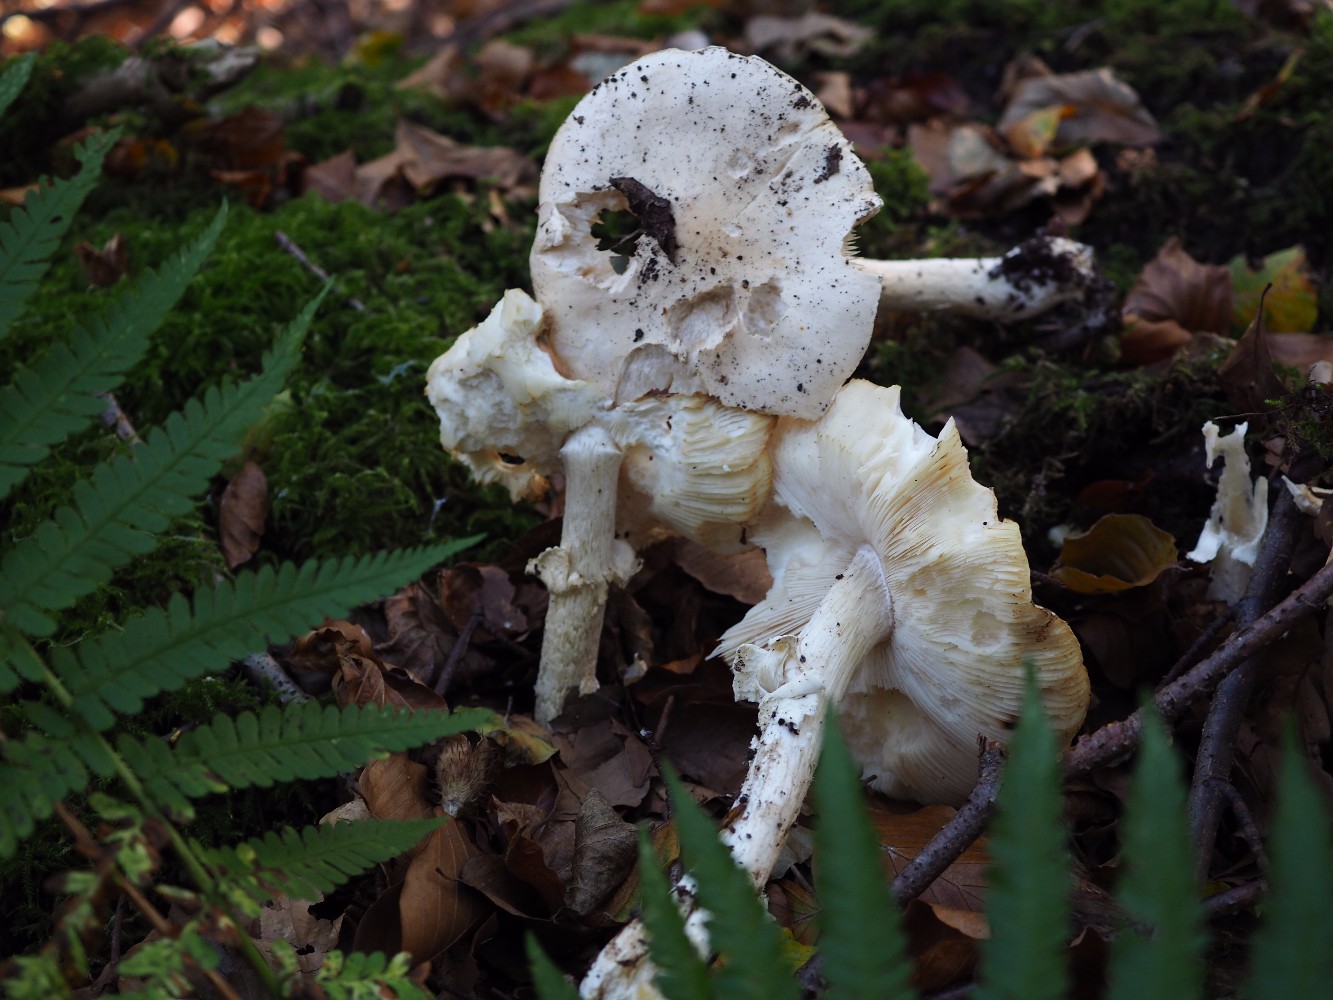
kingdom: Fungi
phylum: Basidiomycota
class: Agaricomycetes
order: Agaricales
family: Amanitaceae
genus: Limacellopsis
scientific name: Limacellopsis guttata
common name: tåre-snekkehat
